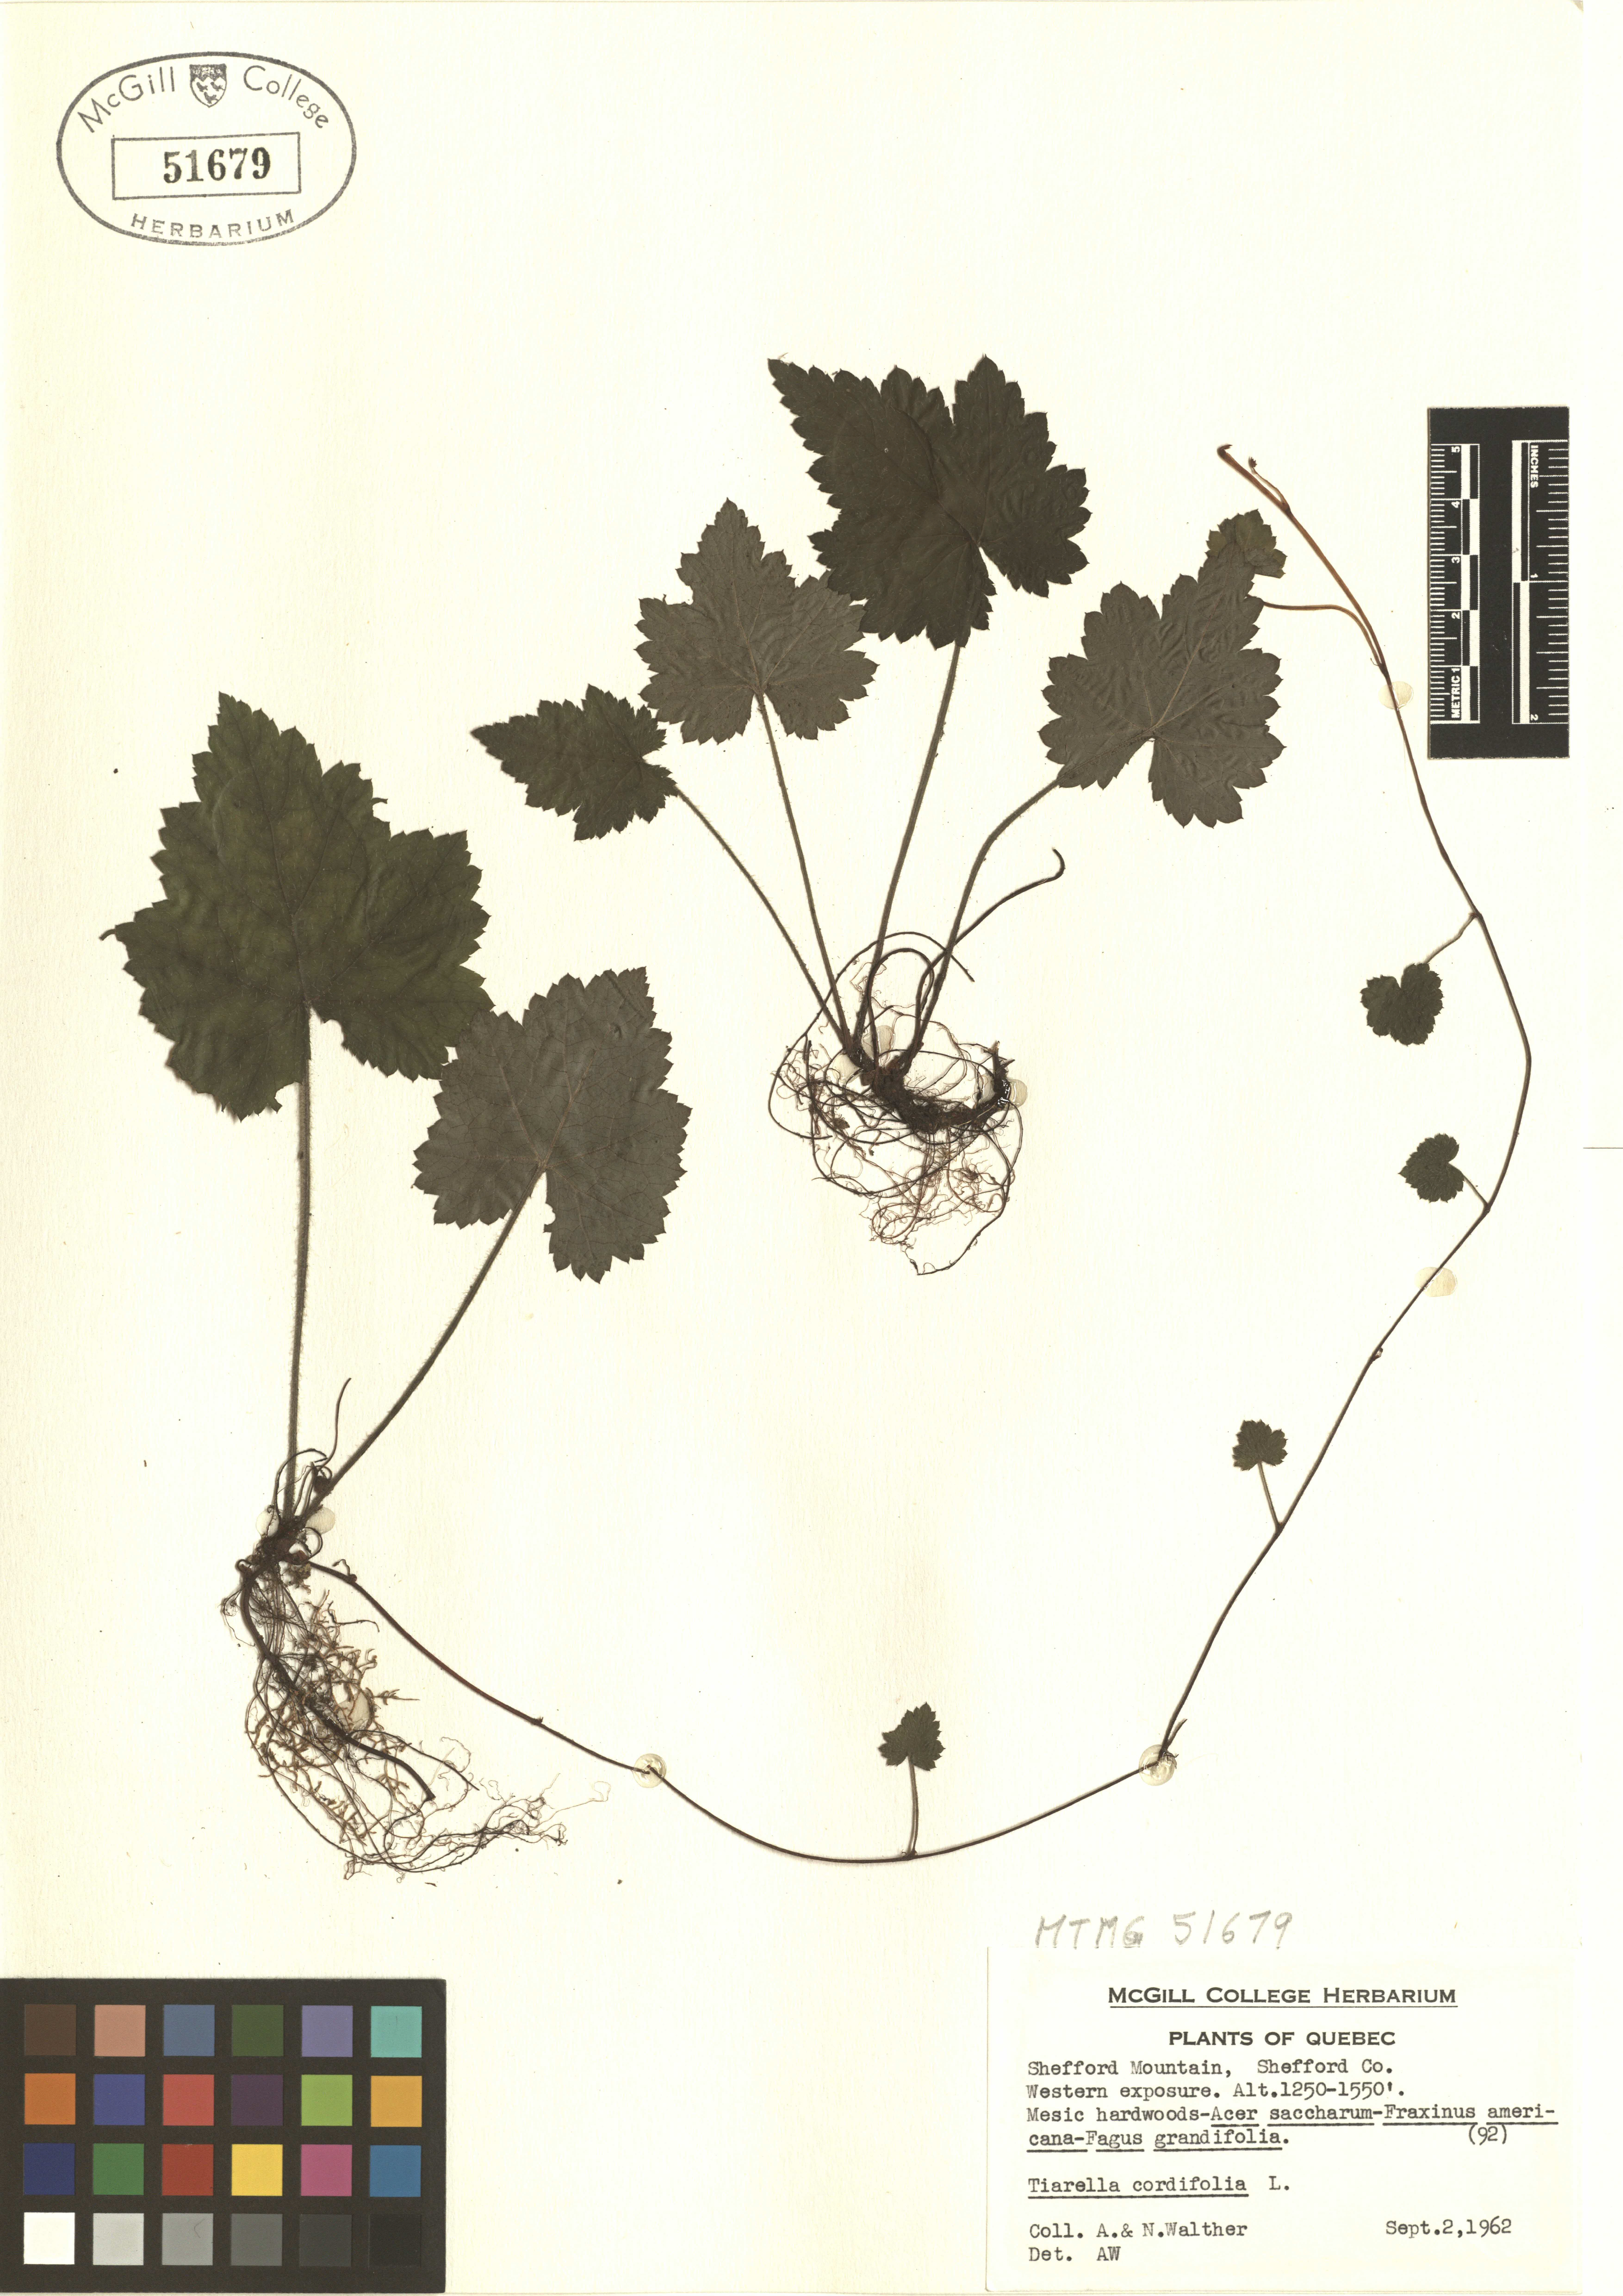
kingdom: Plantae
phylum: Tracheophyta
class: Magnoliopsida
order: Saxifragales
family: Saxifragaceae
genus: Tiarella
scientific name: Tiarella cordifolia
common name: Foamflower
